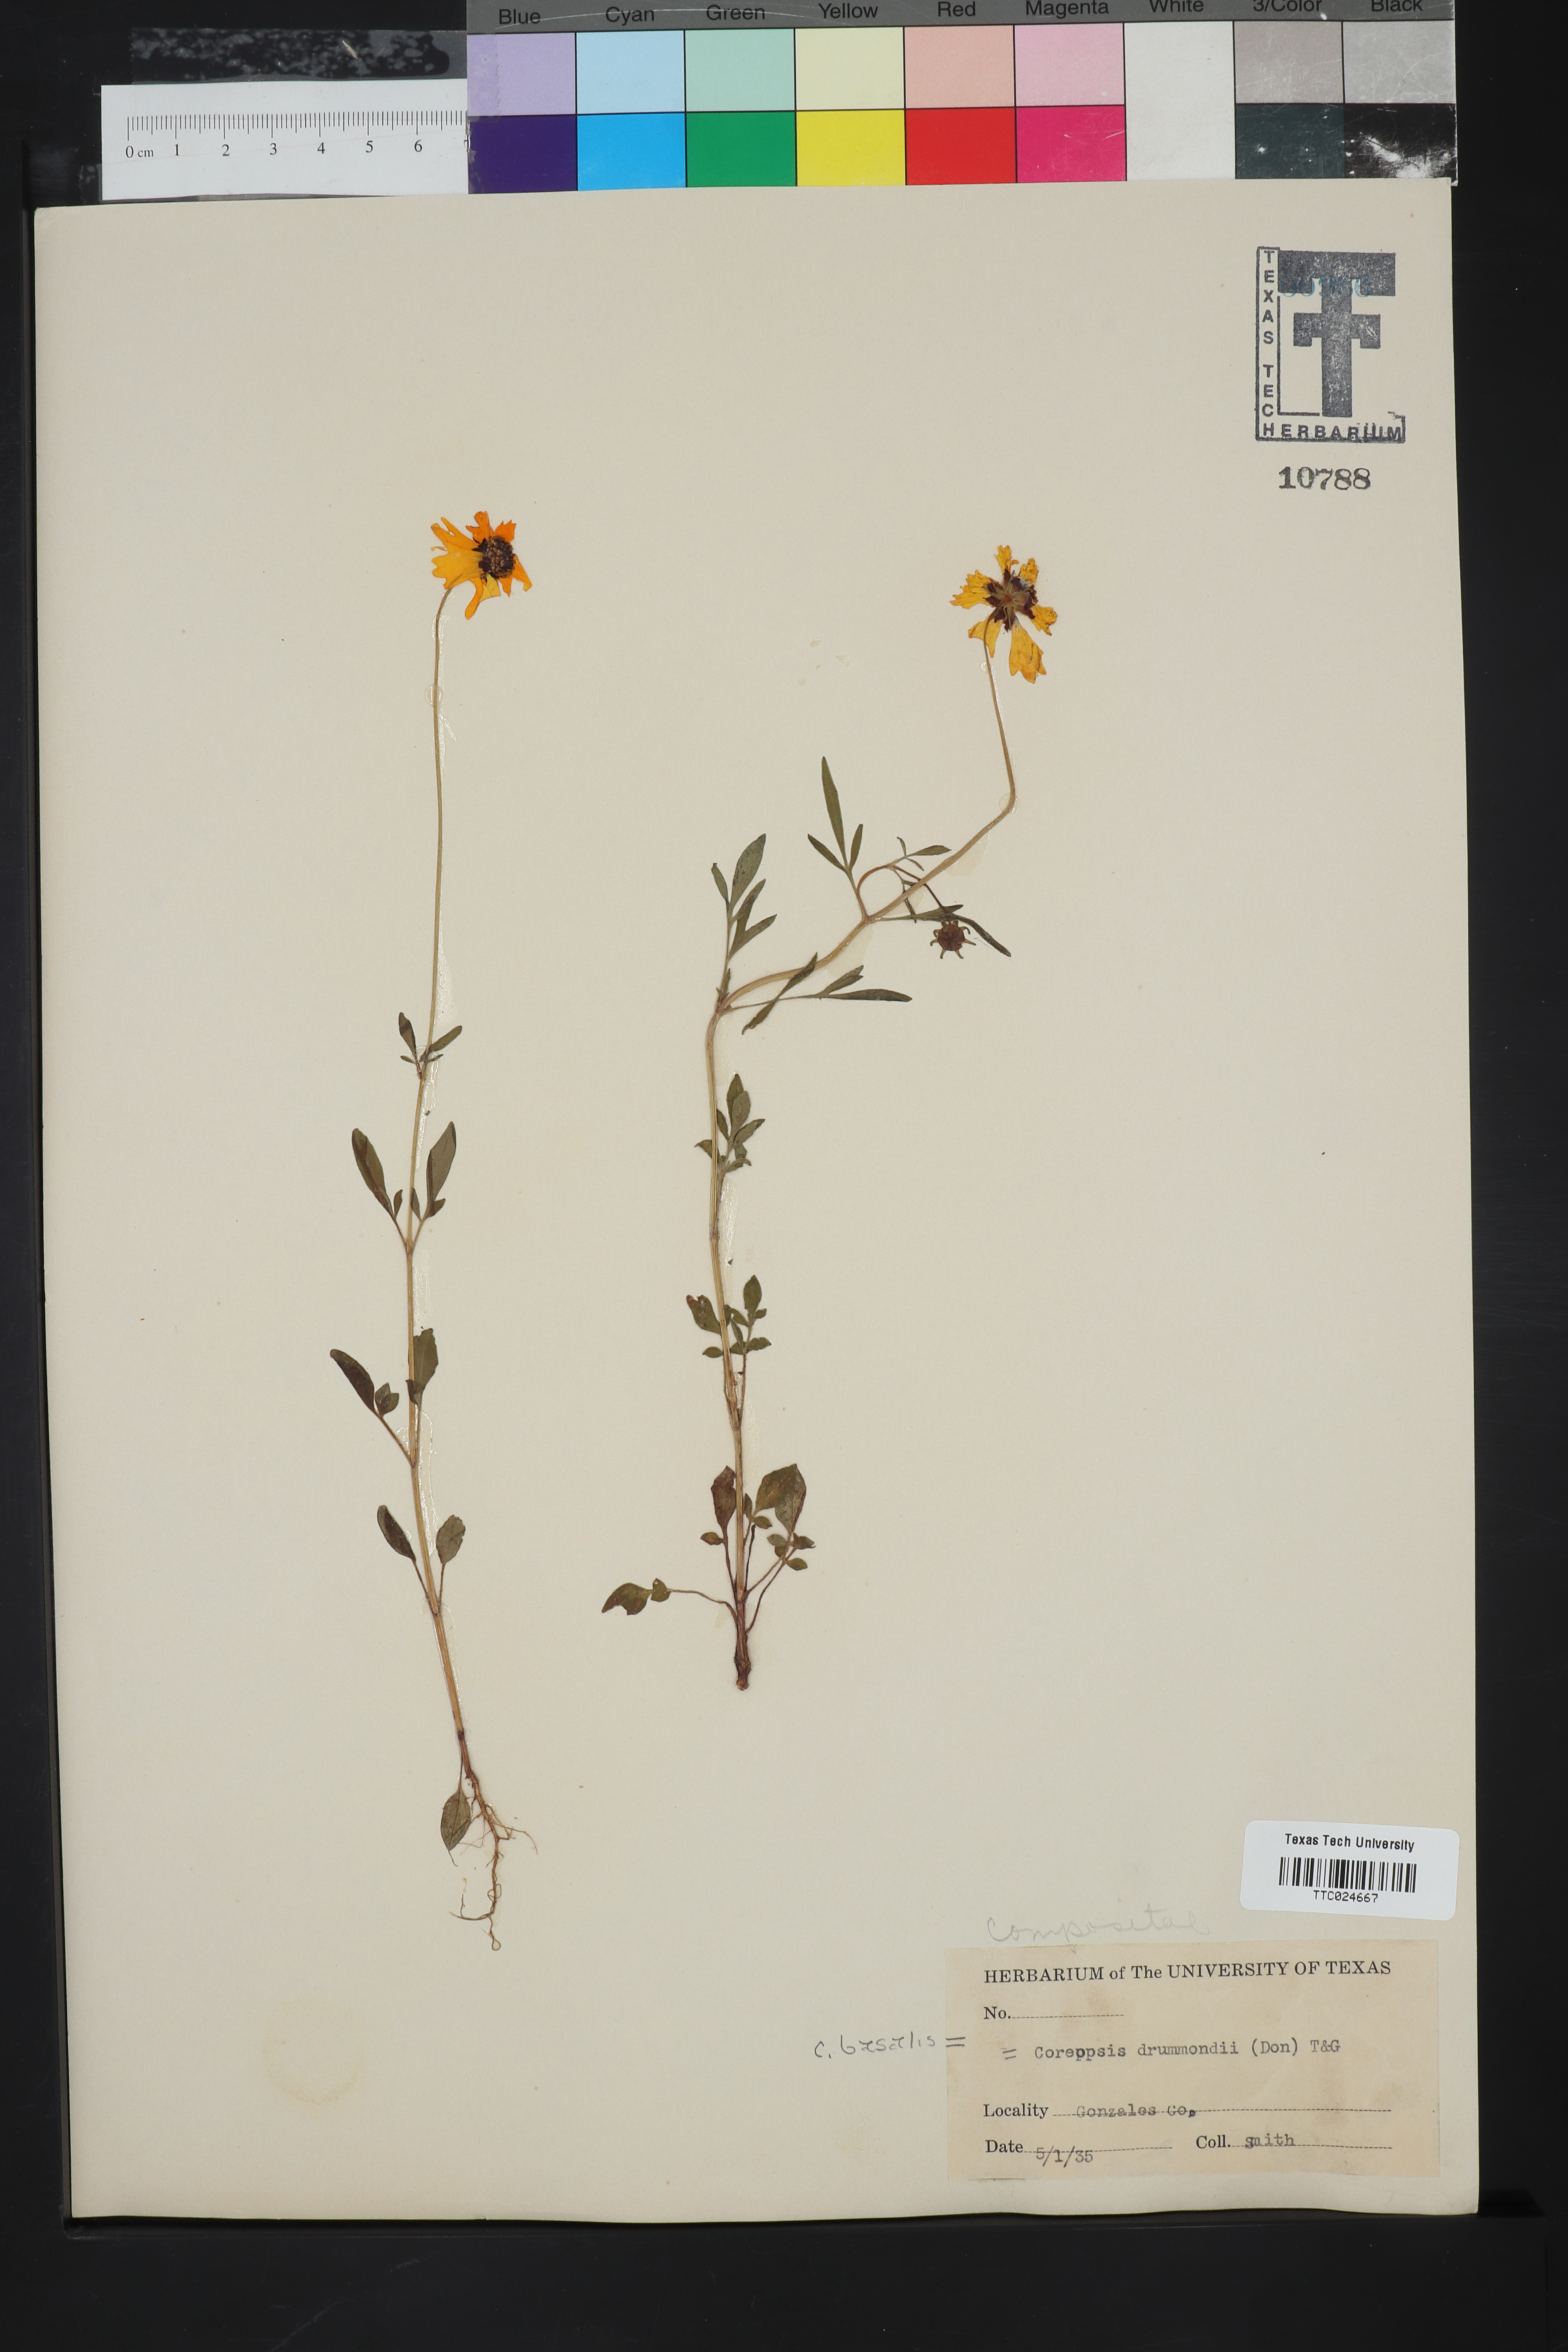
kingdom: Plantae
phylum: Tracheophyta
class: Magnoliopsida
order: Asterales
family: Asteraceae
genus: Coreopsis
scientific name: Coreopsis basalis
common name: Golden-mane coreopsis
